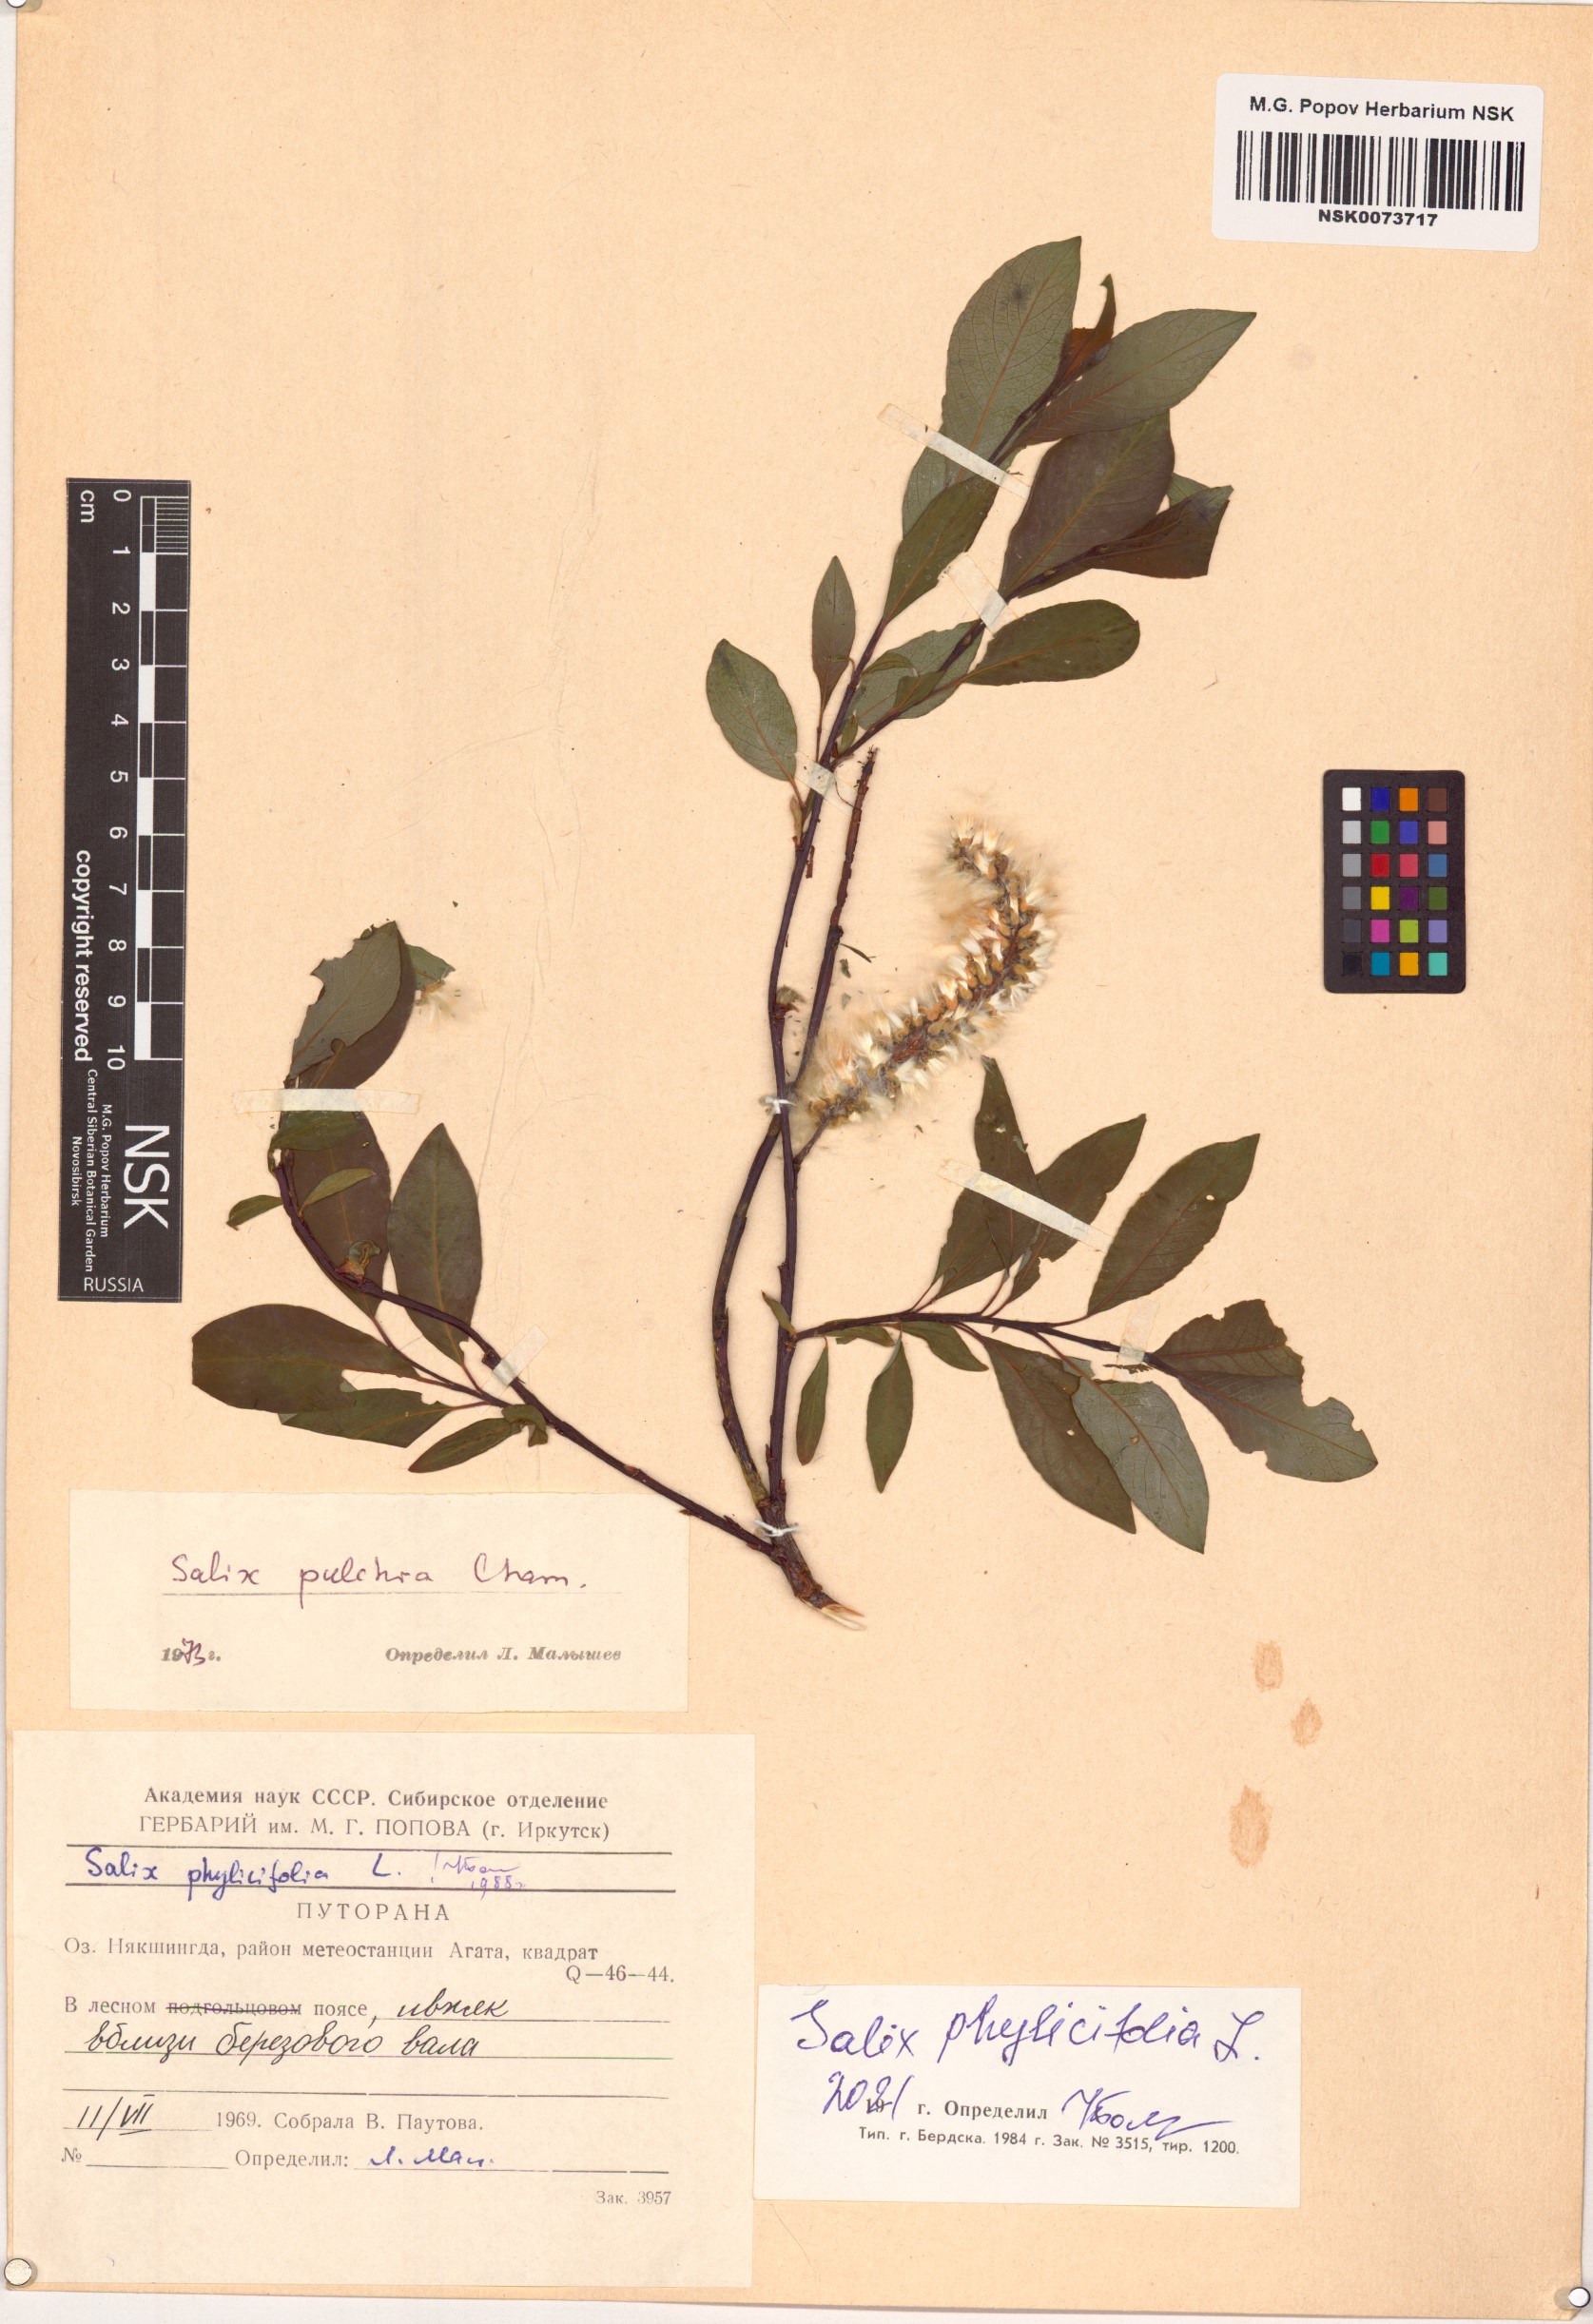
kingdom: Plantae
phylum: Tracheophyta
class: Magnoliopsida
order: Malpighiales
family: Salicaceae
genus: Salix
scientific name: Salix phylicifolia
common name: Tea-leaved willow
